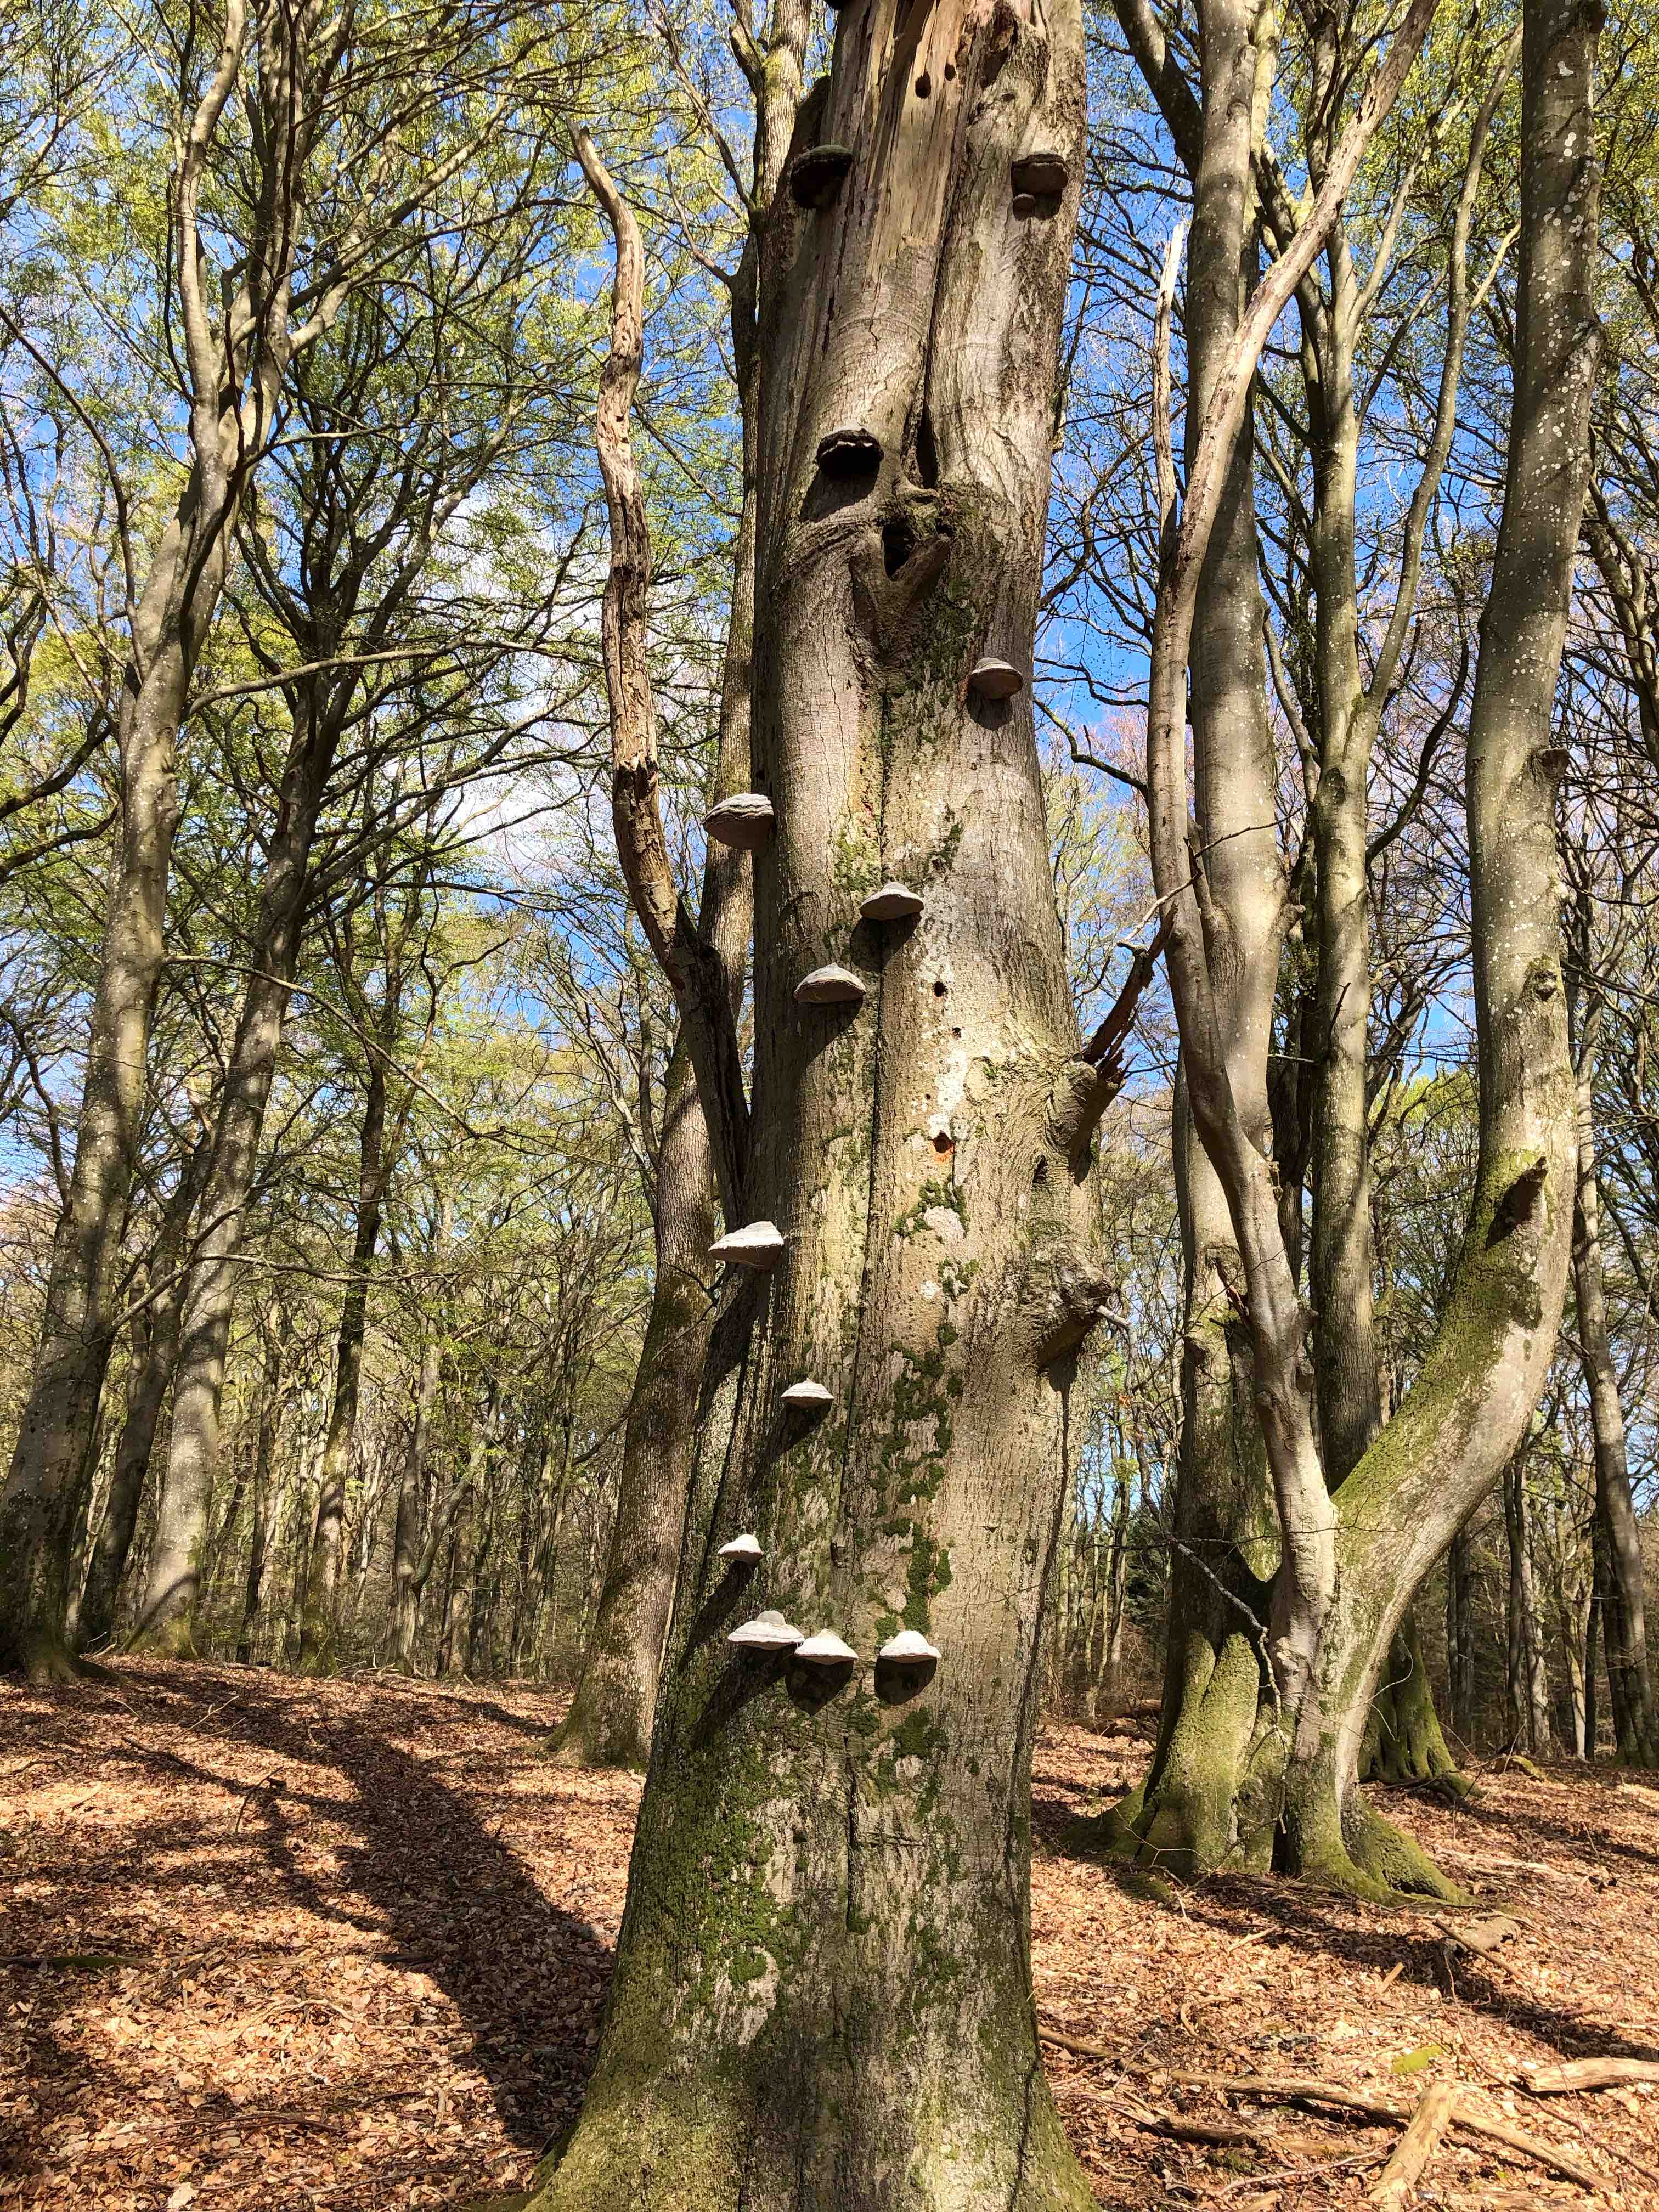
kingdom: Fungi
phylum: Basidiomycota
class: Agaricomycetes
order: Polyporales
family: Polyporaceae
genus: Fomes
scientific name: Fomes fomentarius
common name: tøndersvamp
